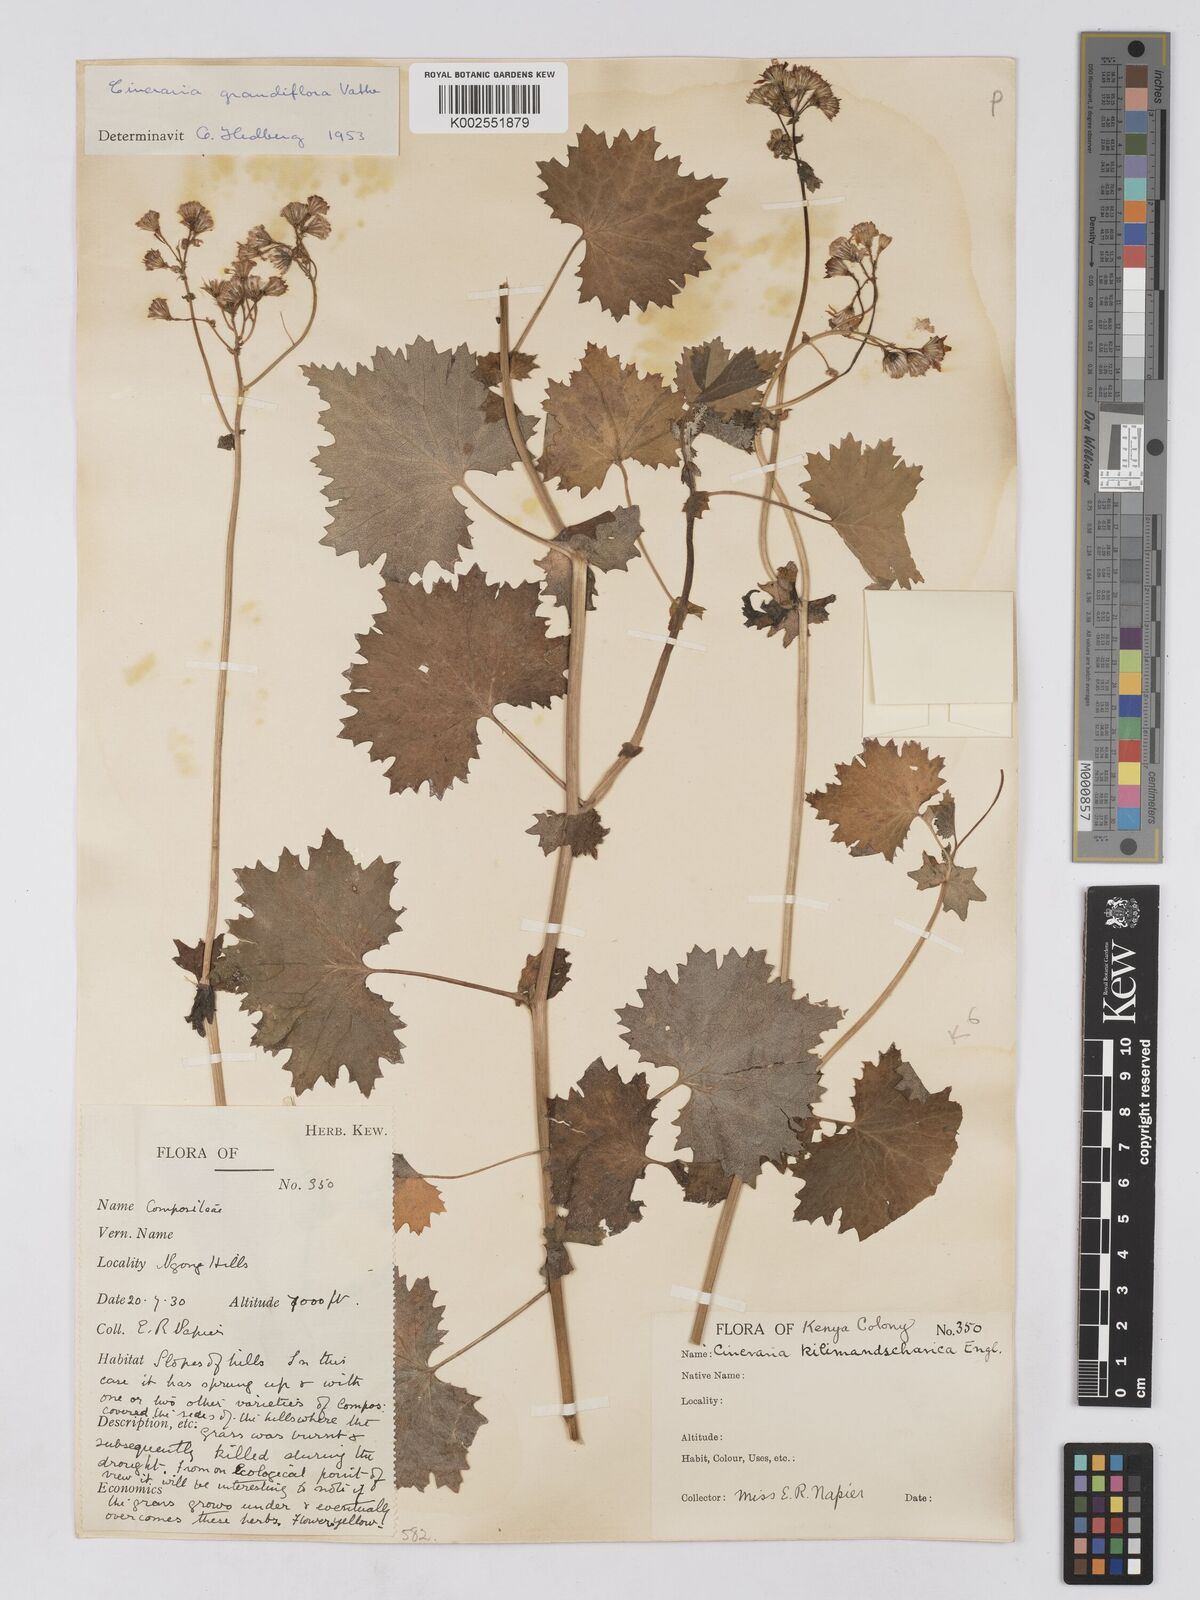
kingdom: Plantae
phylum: Tracheophyta
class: Magnoliopsida
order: Asterales
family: Asteraceae
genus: Cineraria
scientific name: Cineraria deltoidea
